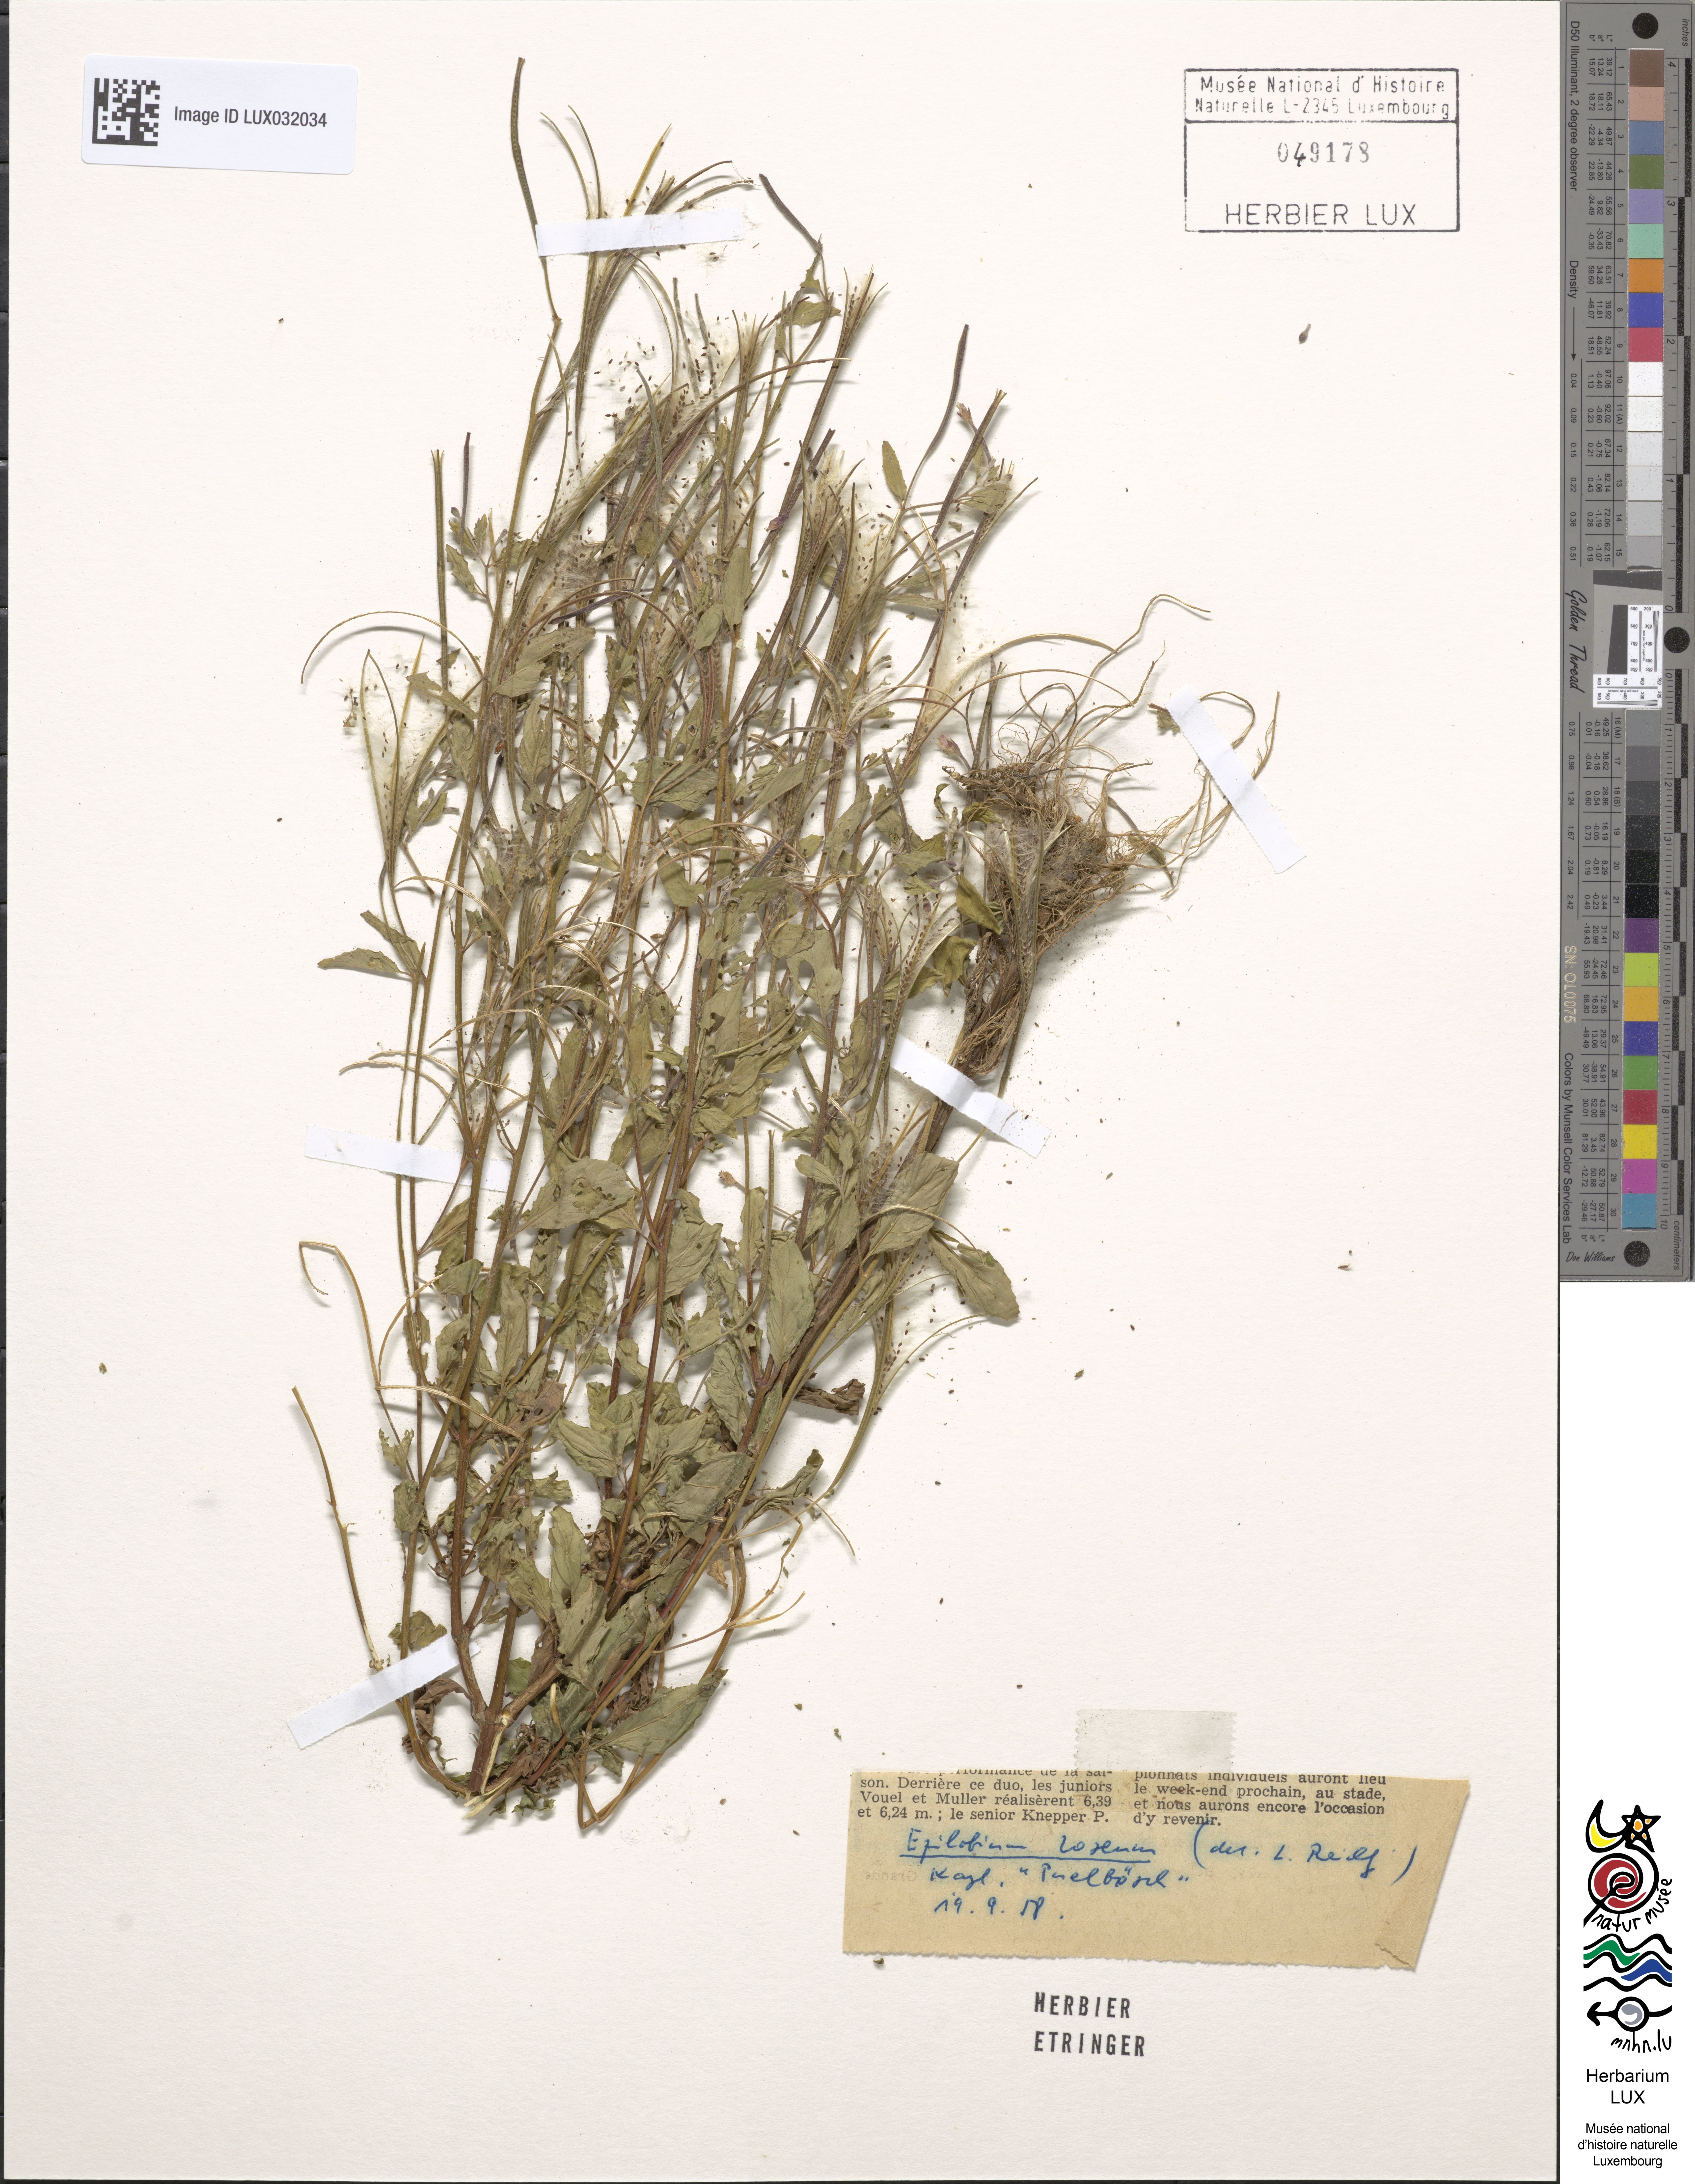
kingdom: Plantae
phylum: Tracheophyta
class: Magnoliopsida
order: Myrtales
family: Onagraceae
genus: Epilobium
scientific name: Epilobium roseum
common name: Pale willowherb
